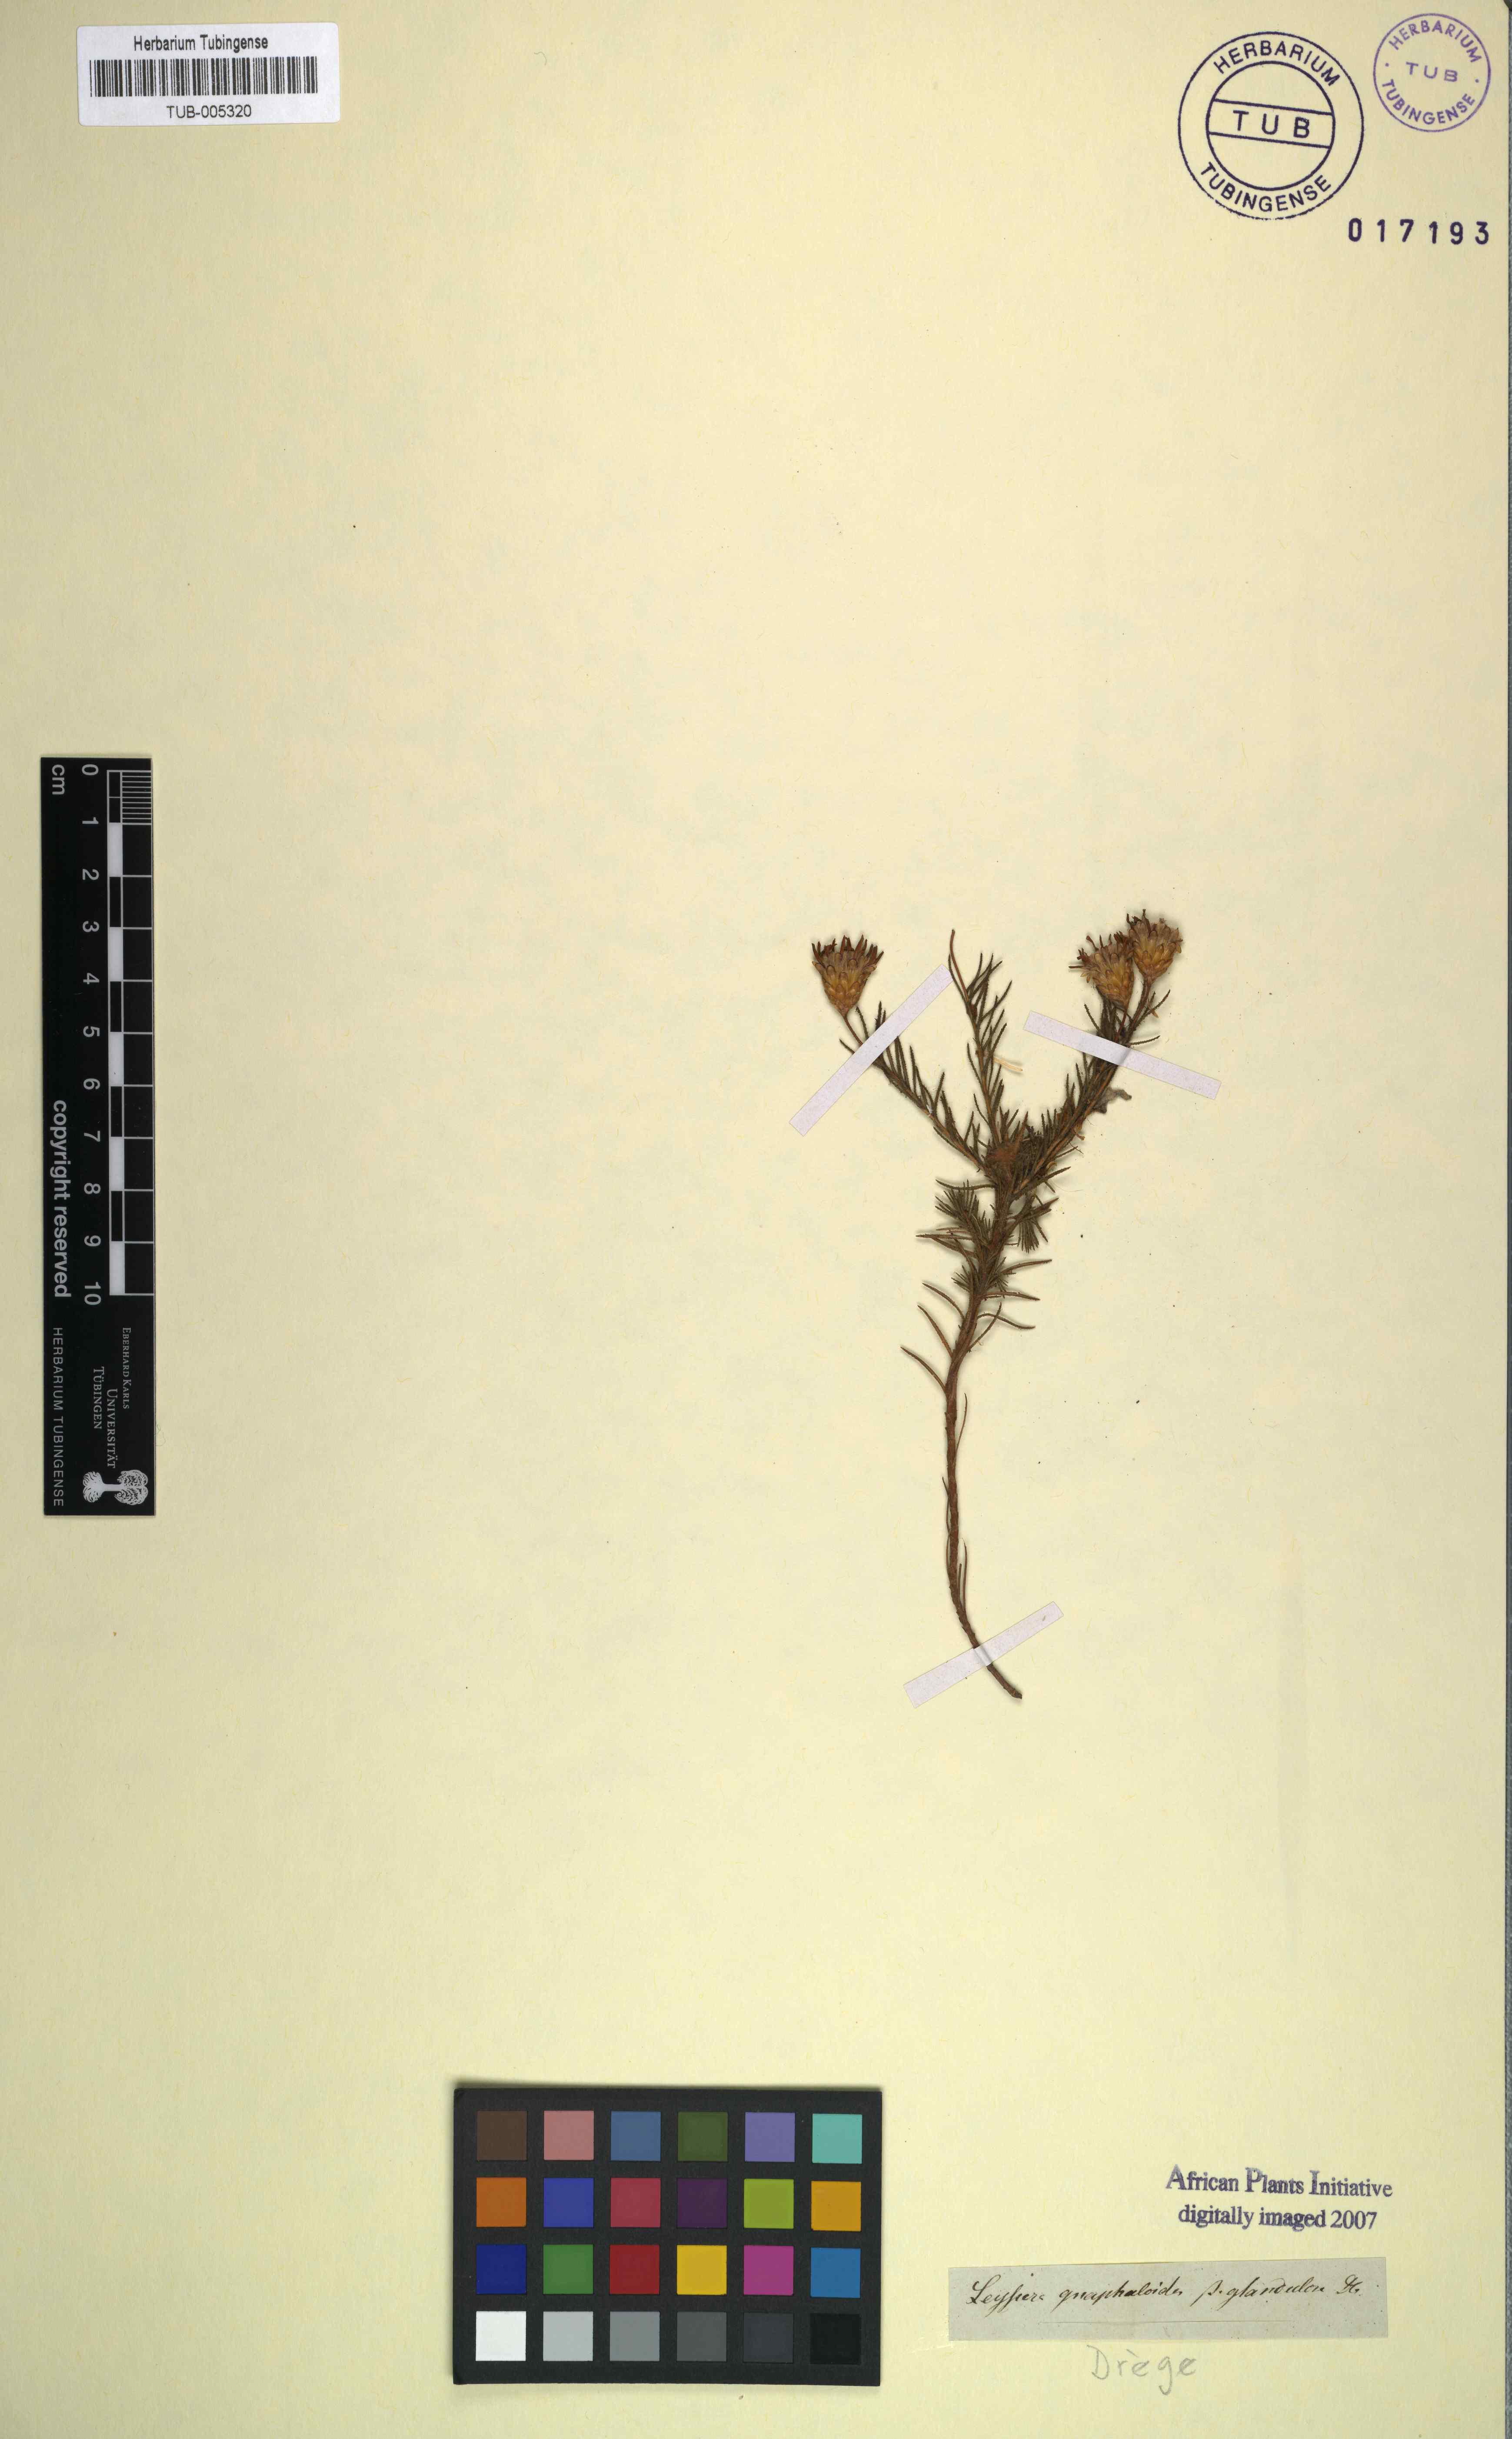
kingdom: Plantae
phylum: Tracheophyta
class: Magnoliopsida
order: Asterales
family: Asteraceae
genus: Syncarpha
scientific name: Syncarpha gnaphaloides
